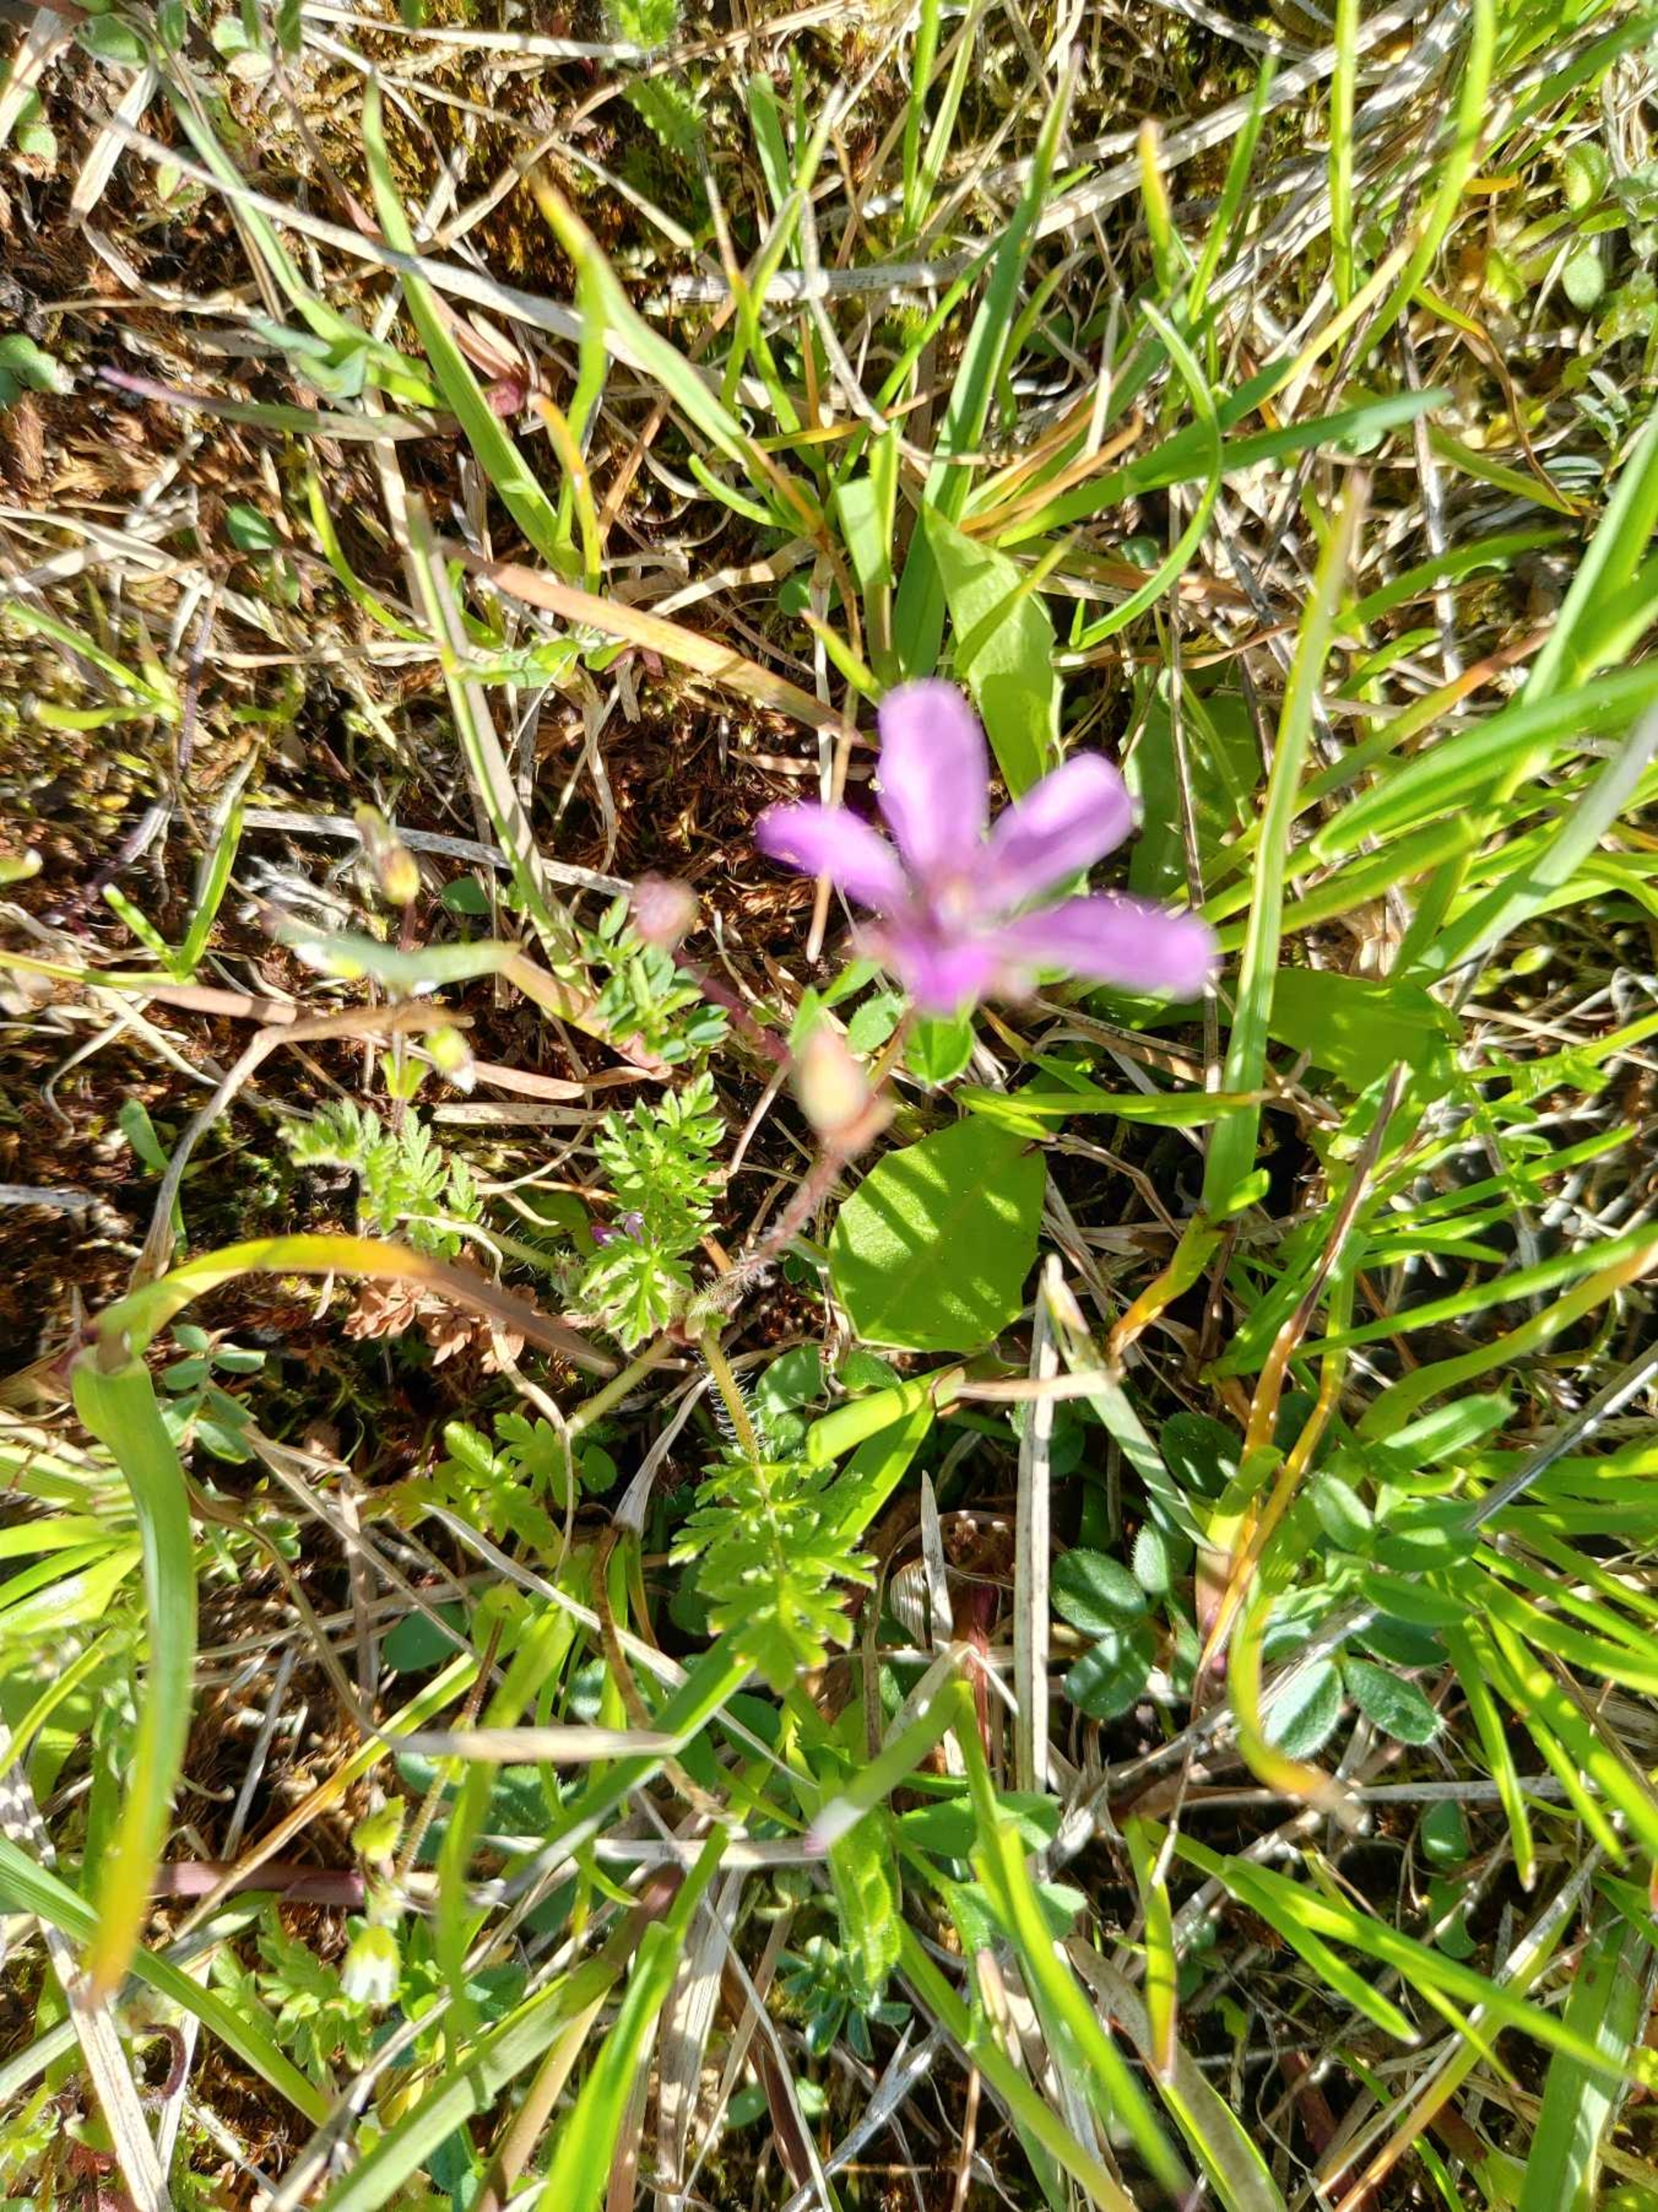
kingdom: Plantae
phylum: Tracheophyta
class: Magnoliopsida
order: Geraniales
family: Geraniaceae
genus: Erodium
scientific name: Erodium cicutarium
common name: Hejrenæb
